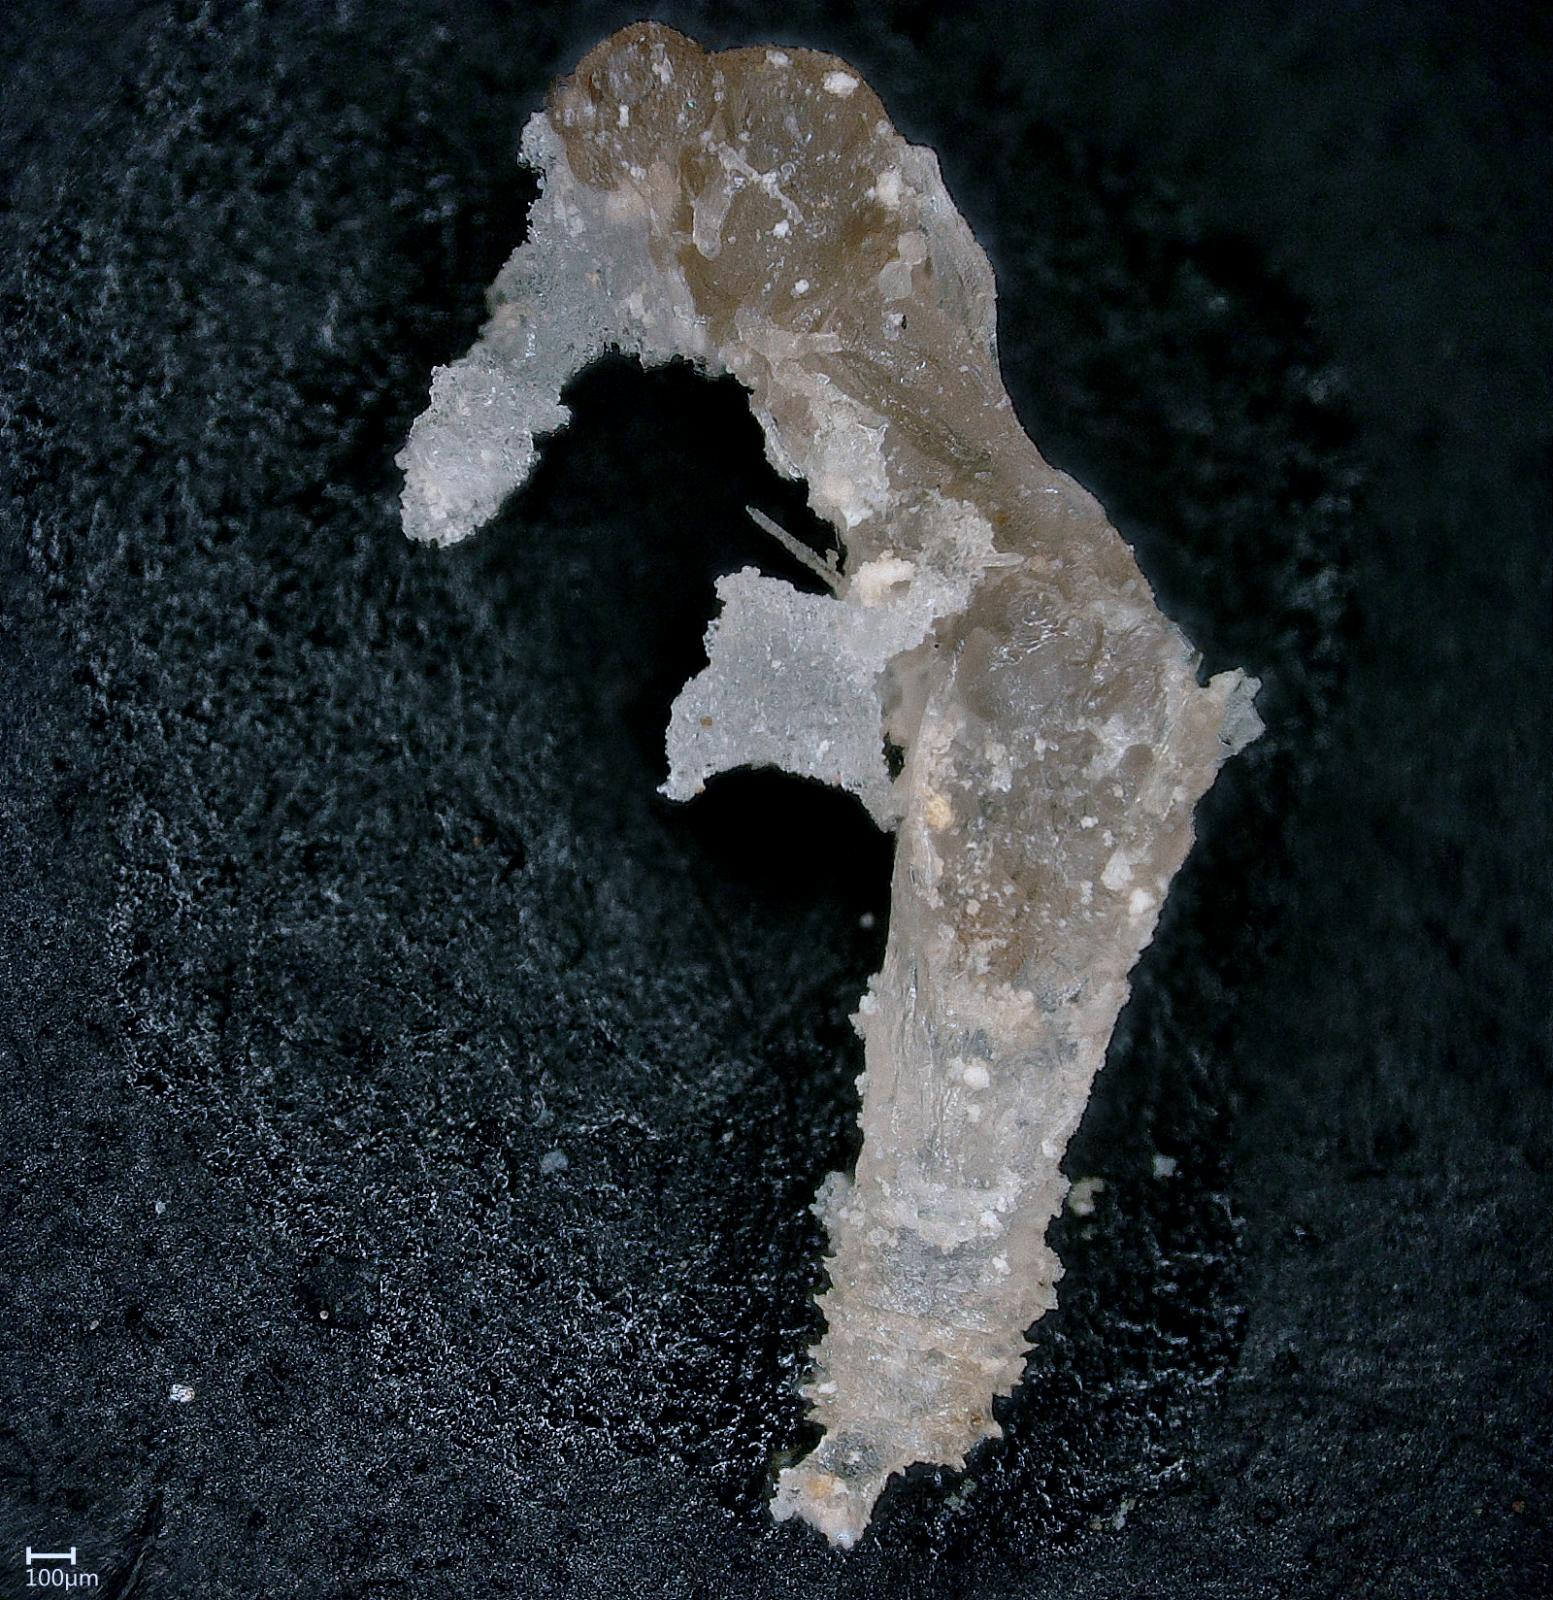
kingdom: Animalia
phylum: Arthropoda
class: Insecta
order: Diptera
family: Ceratopogonidae
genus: Dasyhelea
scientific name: Dasyhelea australia
